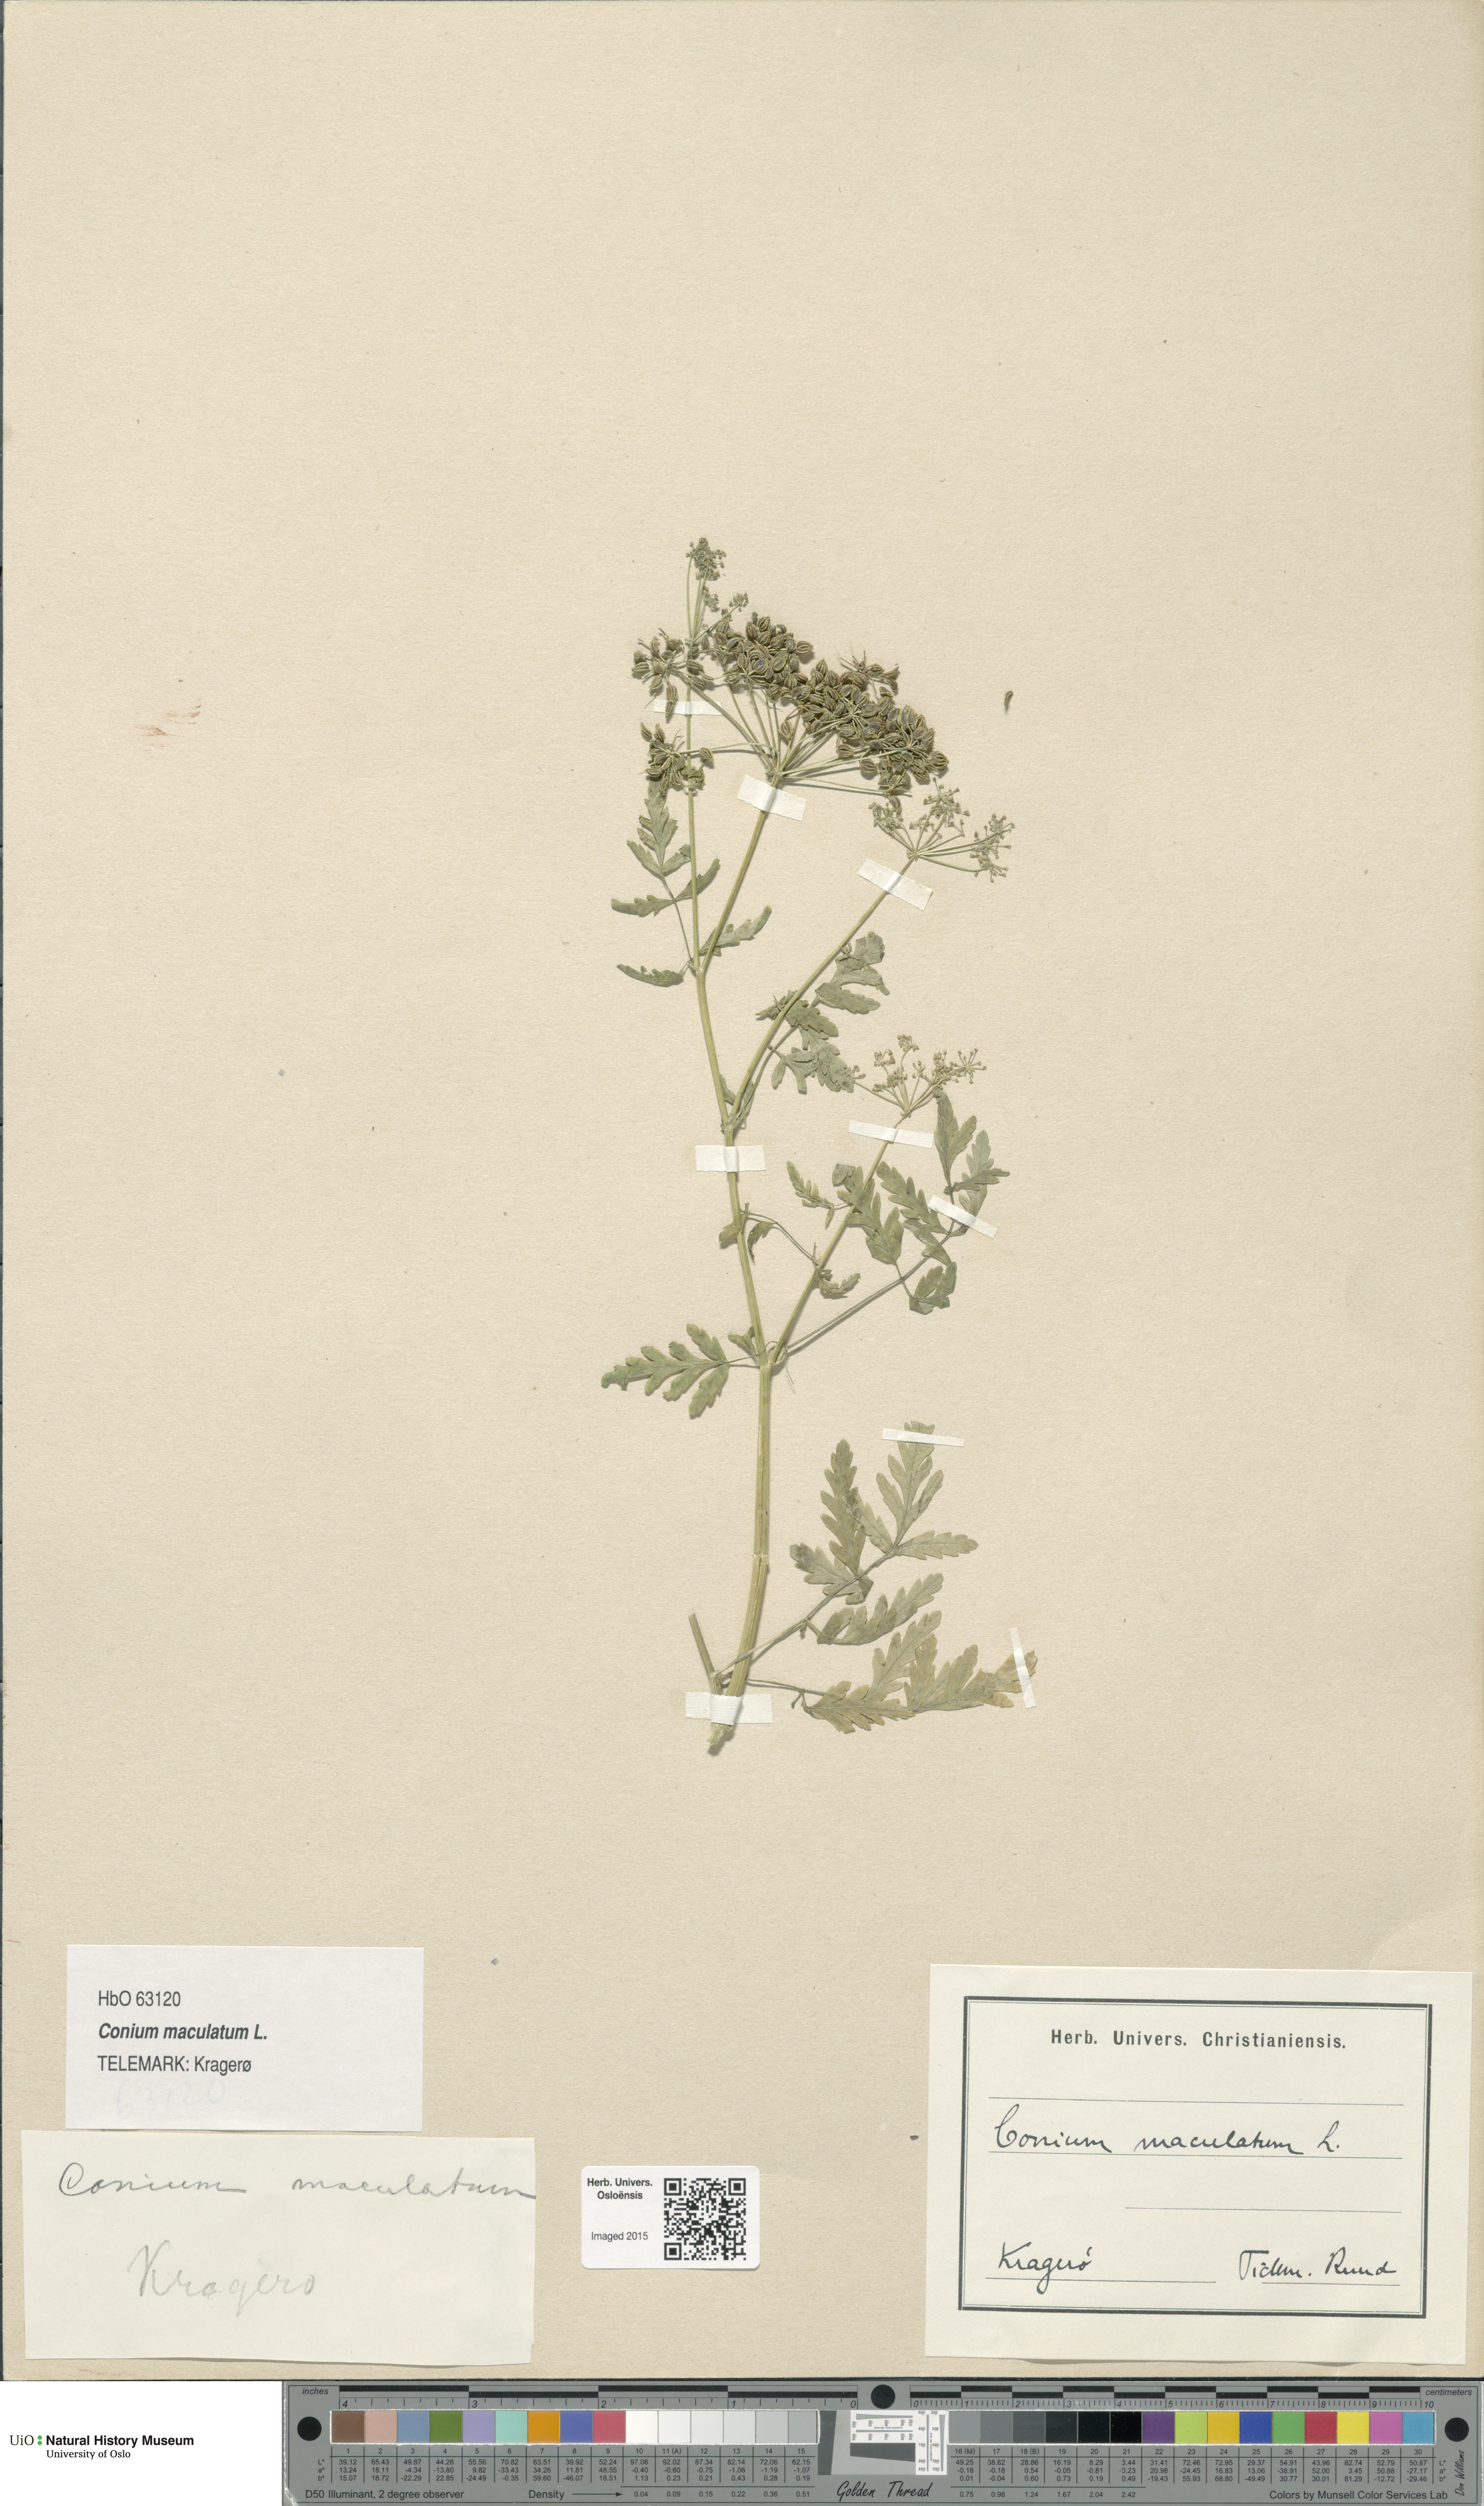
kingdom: Plantae
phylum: Tracheophyta
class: Magnoliopsida
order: Apiales
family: Apiaceae
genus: Conium
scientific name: Conium maculatum
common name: Hemlock
